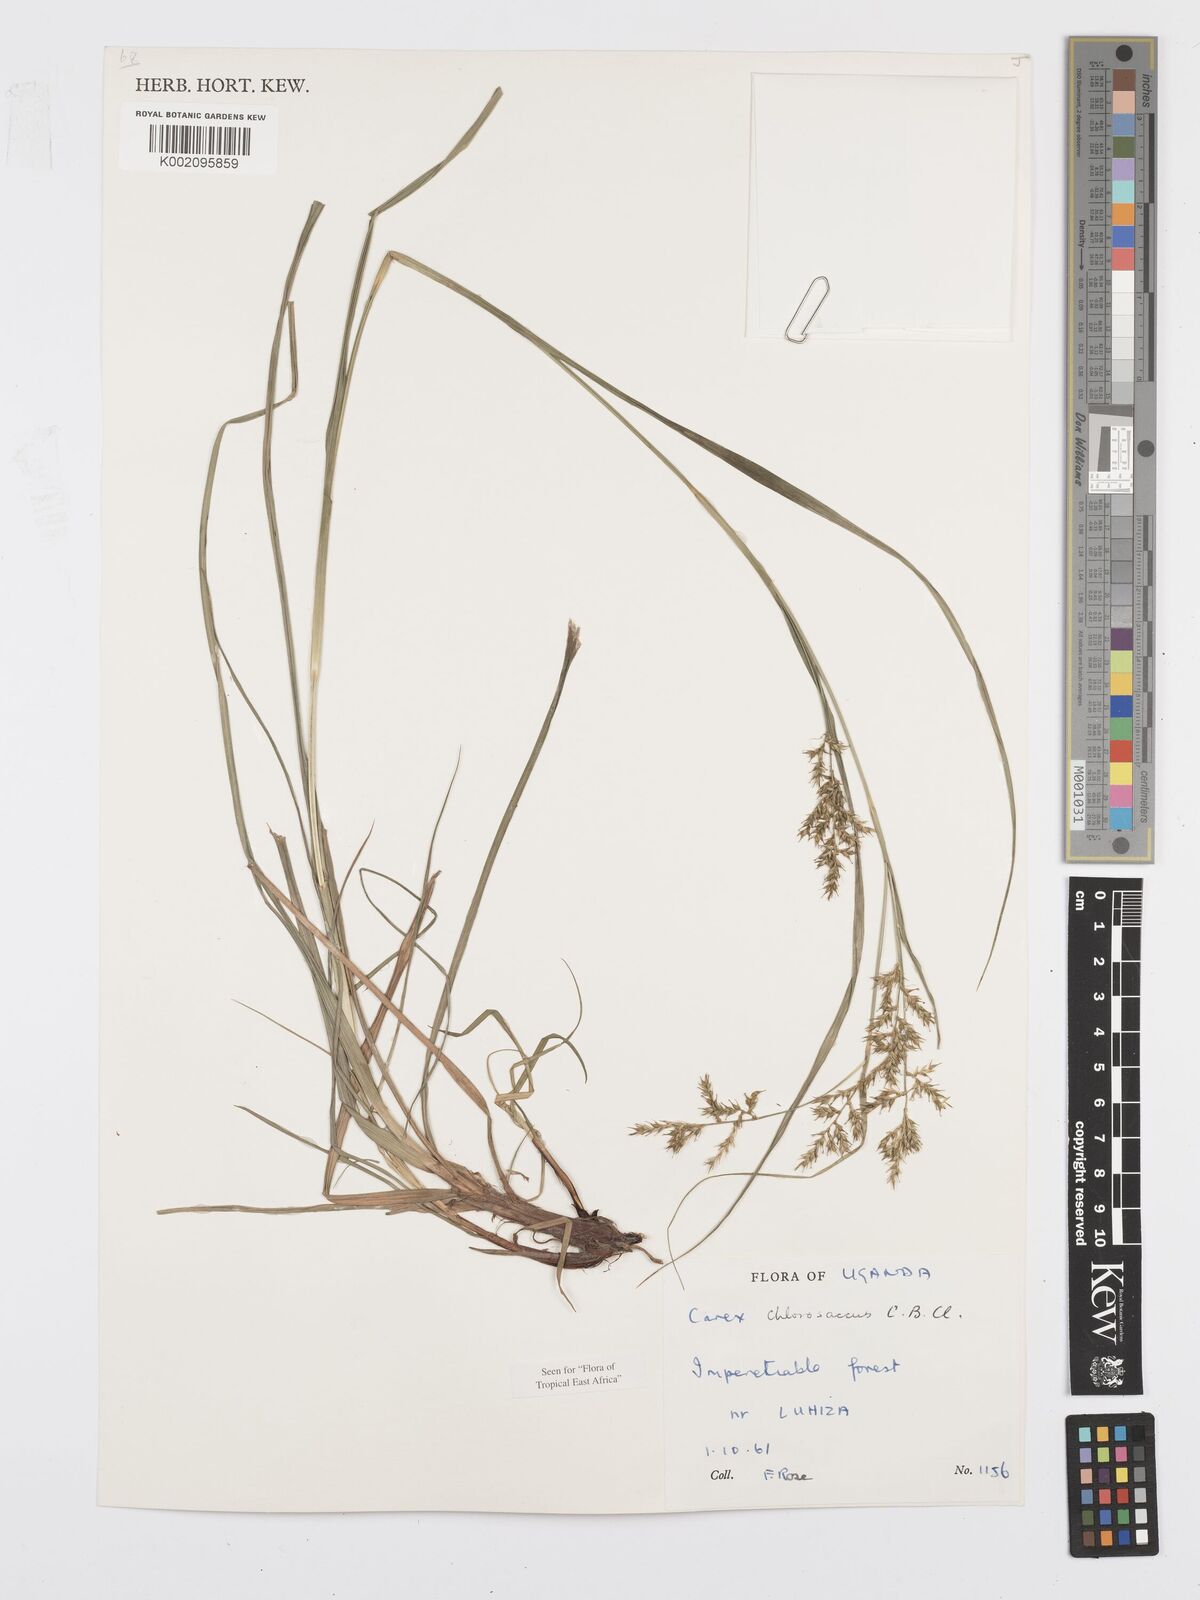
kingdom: Plantae
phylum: Tracheophyta
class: Liliopsida
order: Poales
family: Cyperaceae
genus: Carex
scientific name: Carex chlorosaccus
